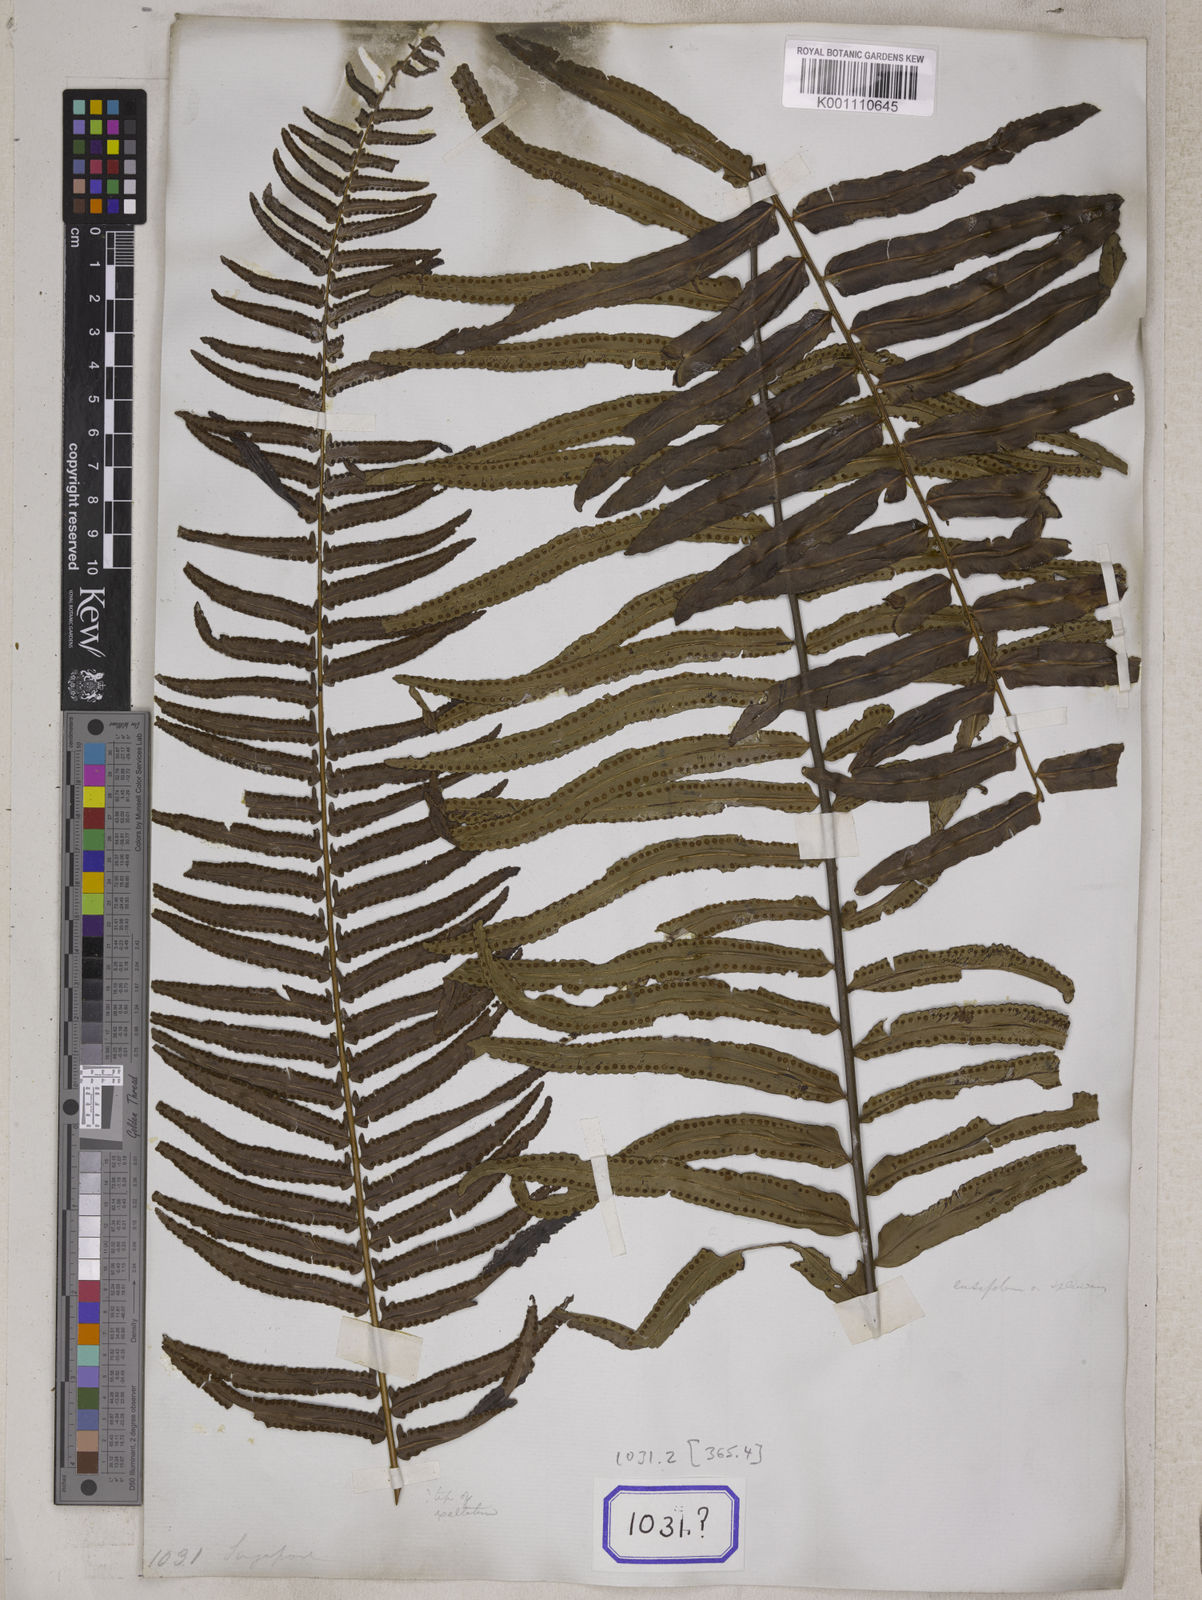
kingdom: Plantae
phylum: Tracheophyta
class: Polypodiopsida
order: Polypodiales
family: Nephrolepidaceae
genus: Nephrolepis
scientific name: Nephrolepis exaltata
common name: Sword fern
